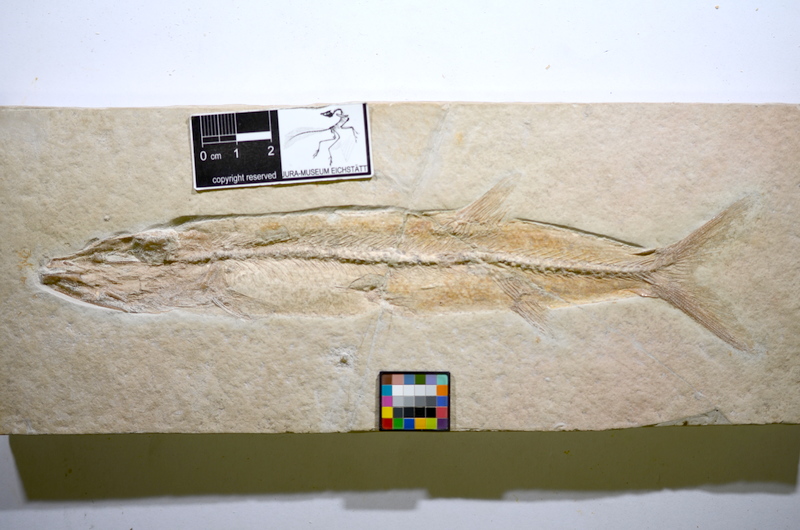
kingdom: Animalia
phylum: Chordata
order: Elopiformes
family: Anaethalionidae
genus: Eichstaettia
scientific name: Eichstaettia mayri
